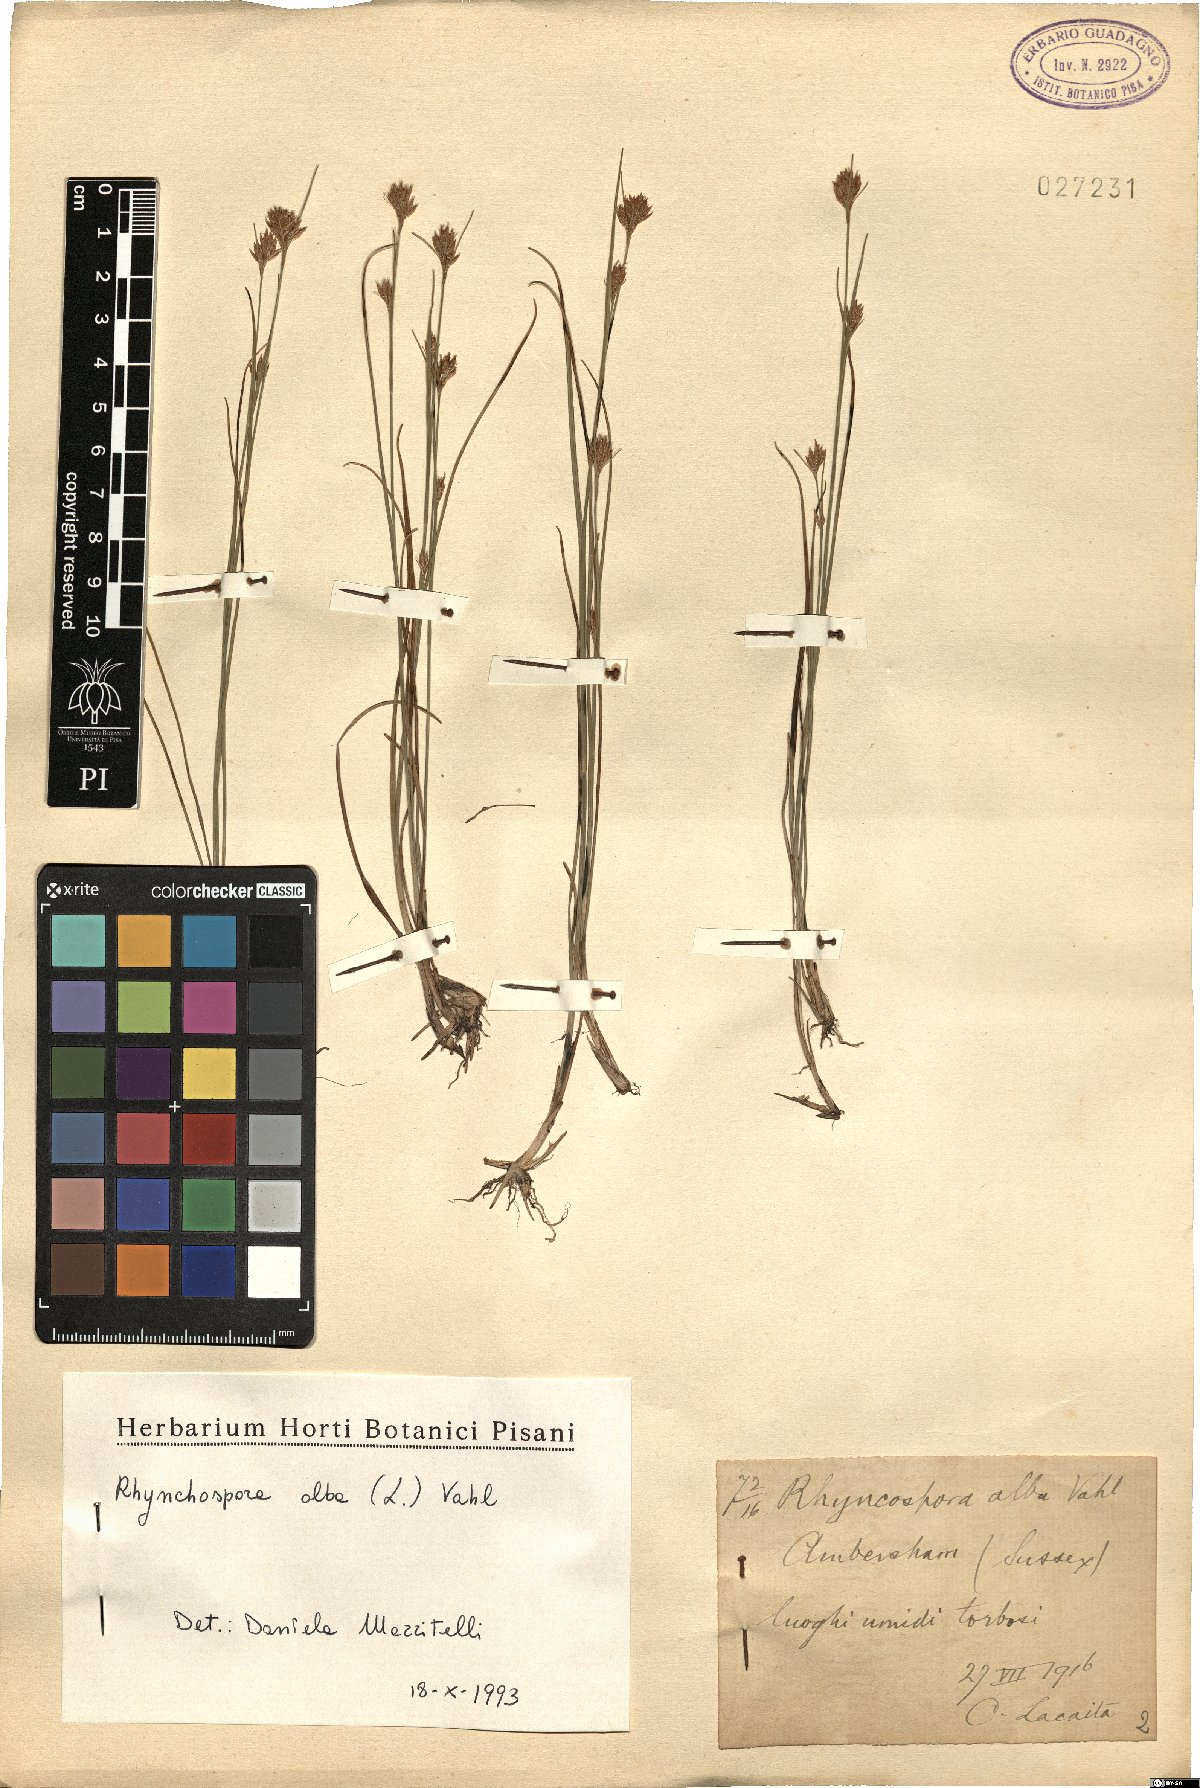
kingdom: Plantae
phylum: Tracheophyta
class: Liliopsida
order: Poales
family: Cyperaceae
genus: Rhynchospora
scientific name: Rhynchospora alba
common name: White beak-sedge
